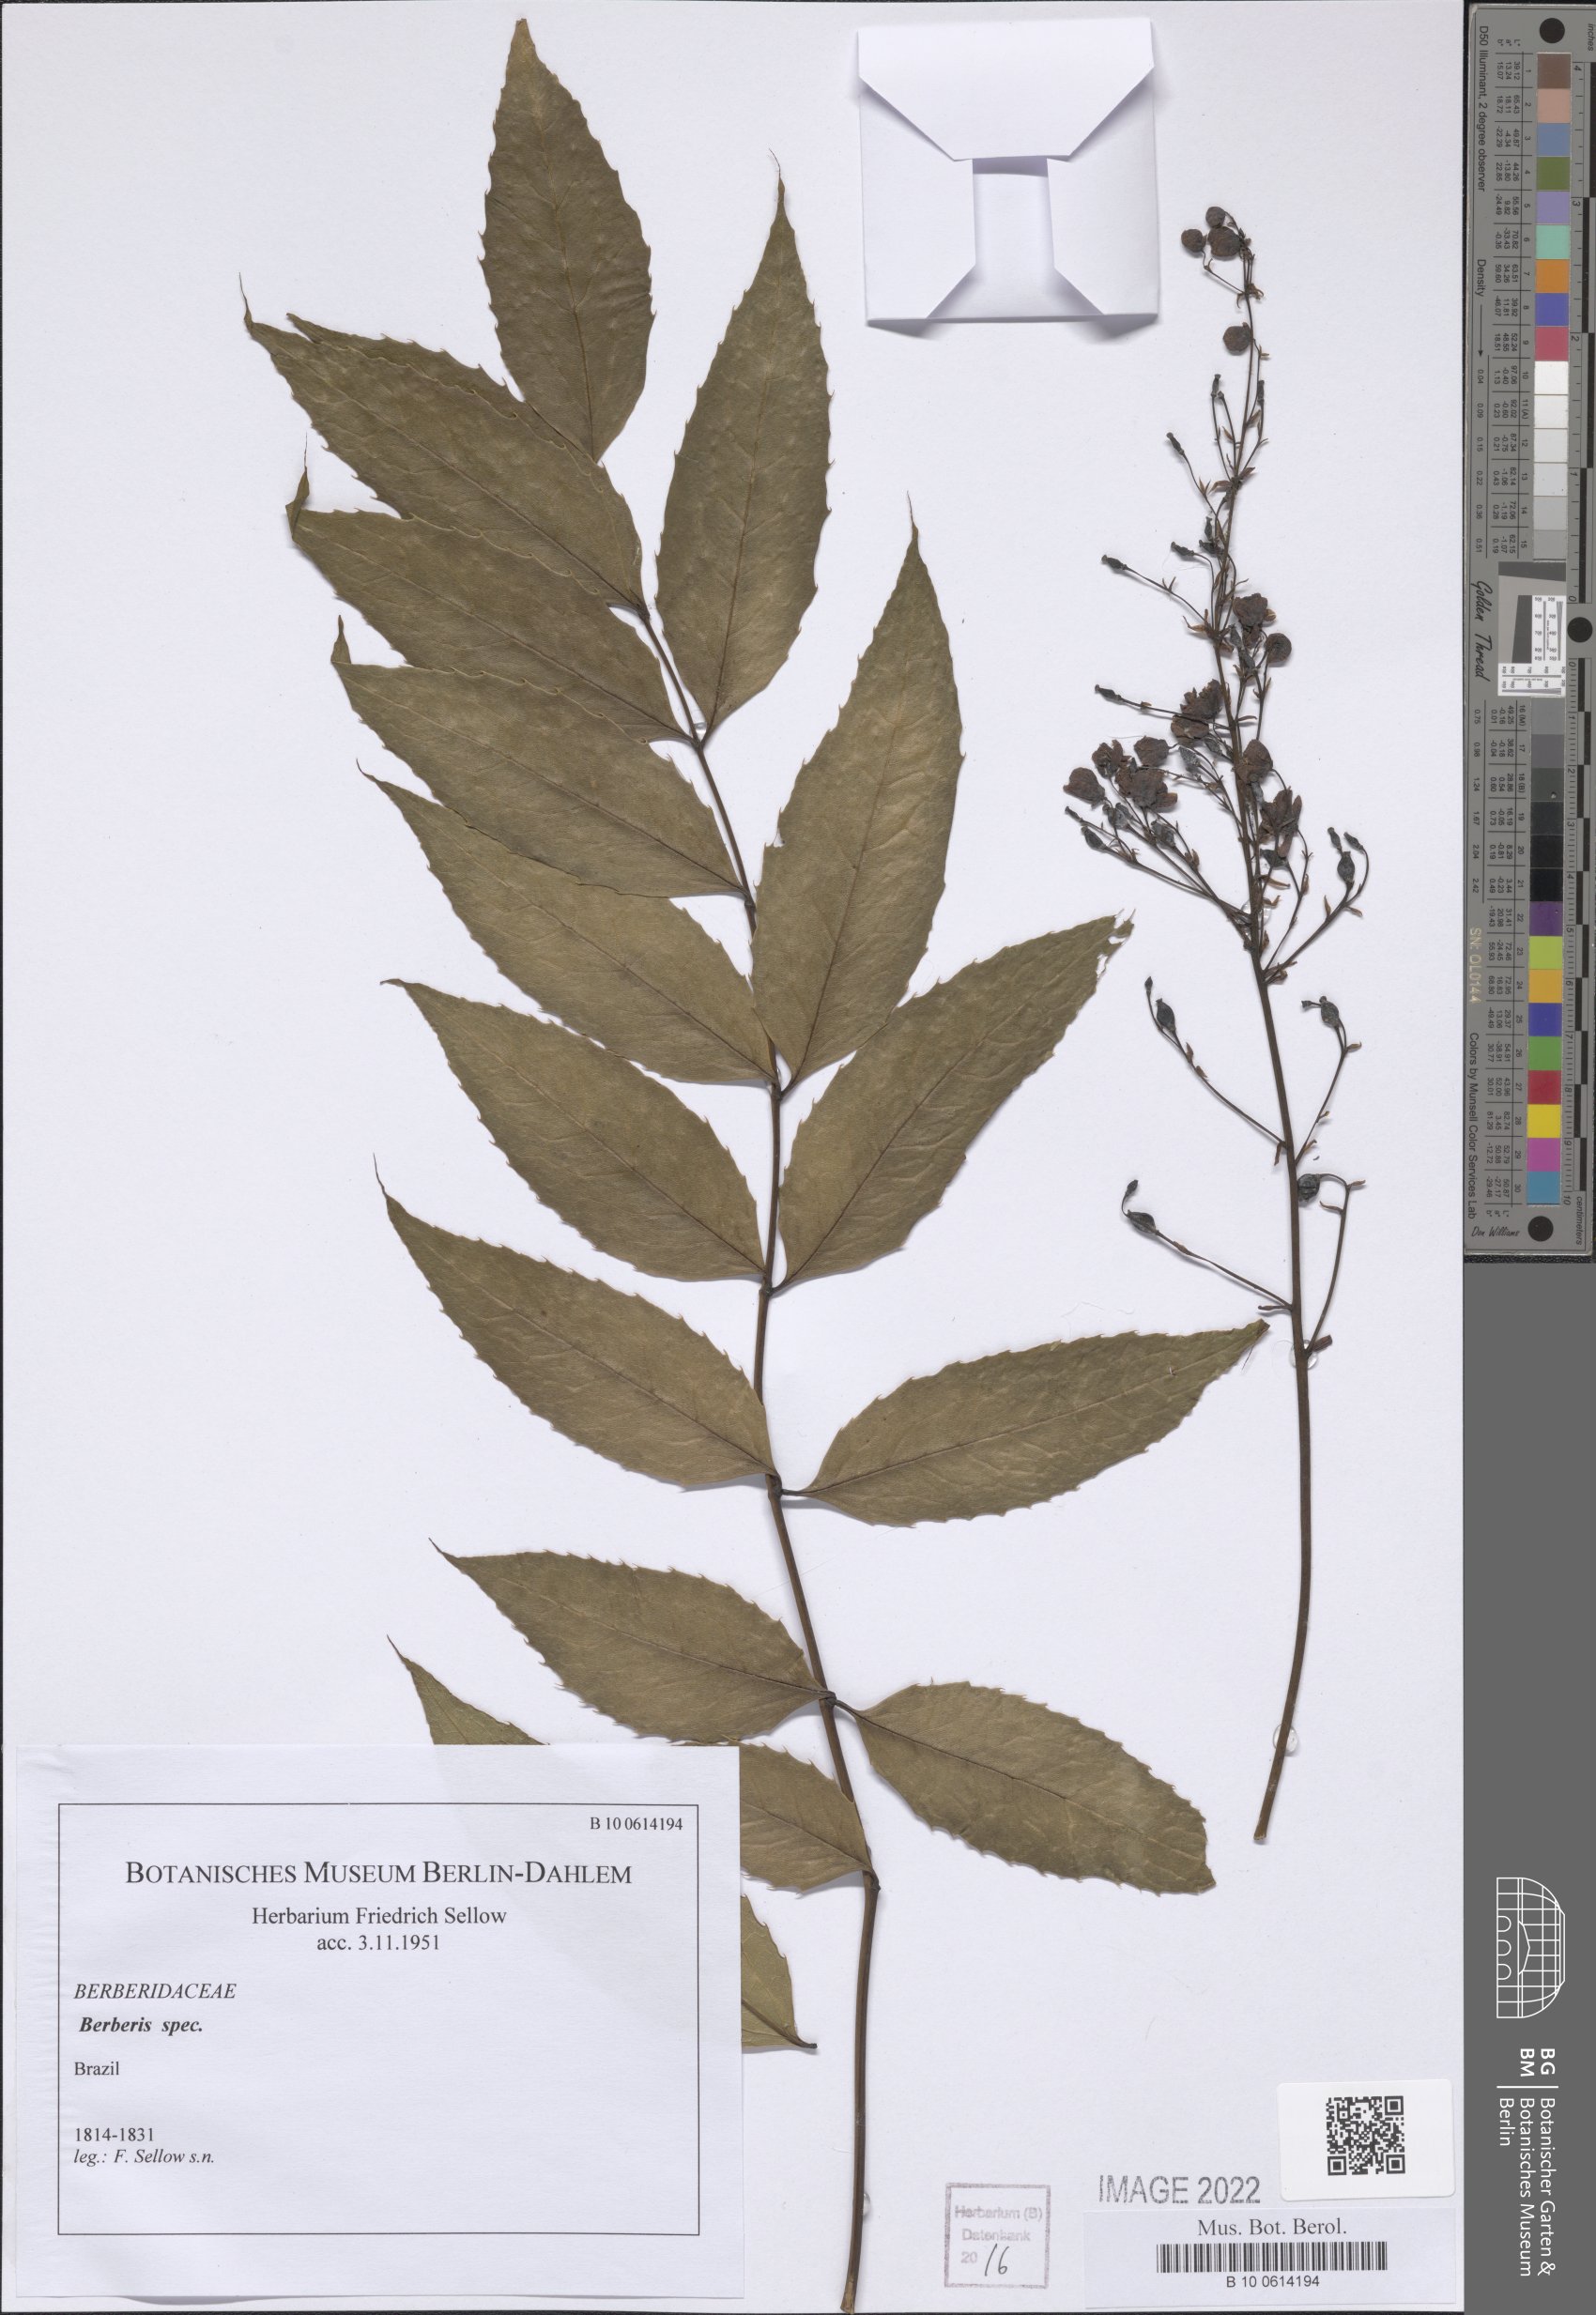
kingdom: Plantae
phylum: Tracheophyta
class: Magnoliopsida
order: Ranunculales
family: Berberidaceae
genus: Berberis
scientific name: Berberis
